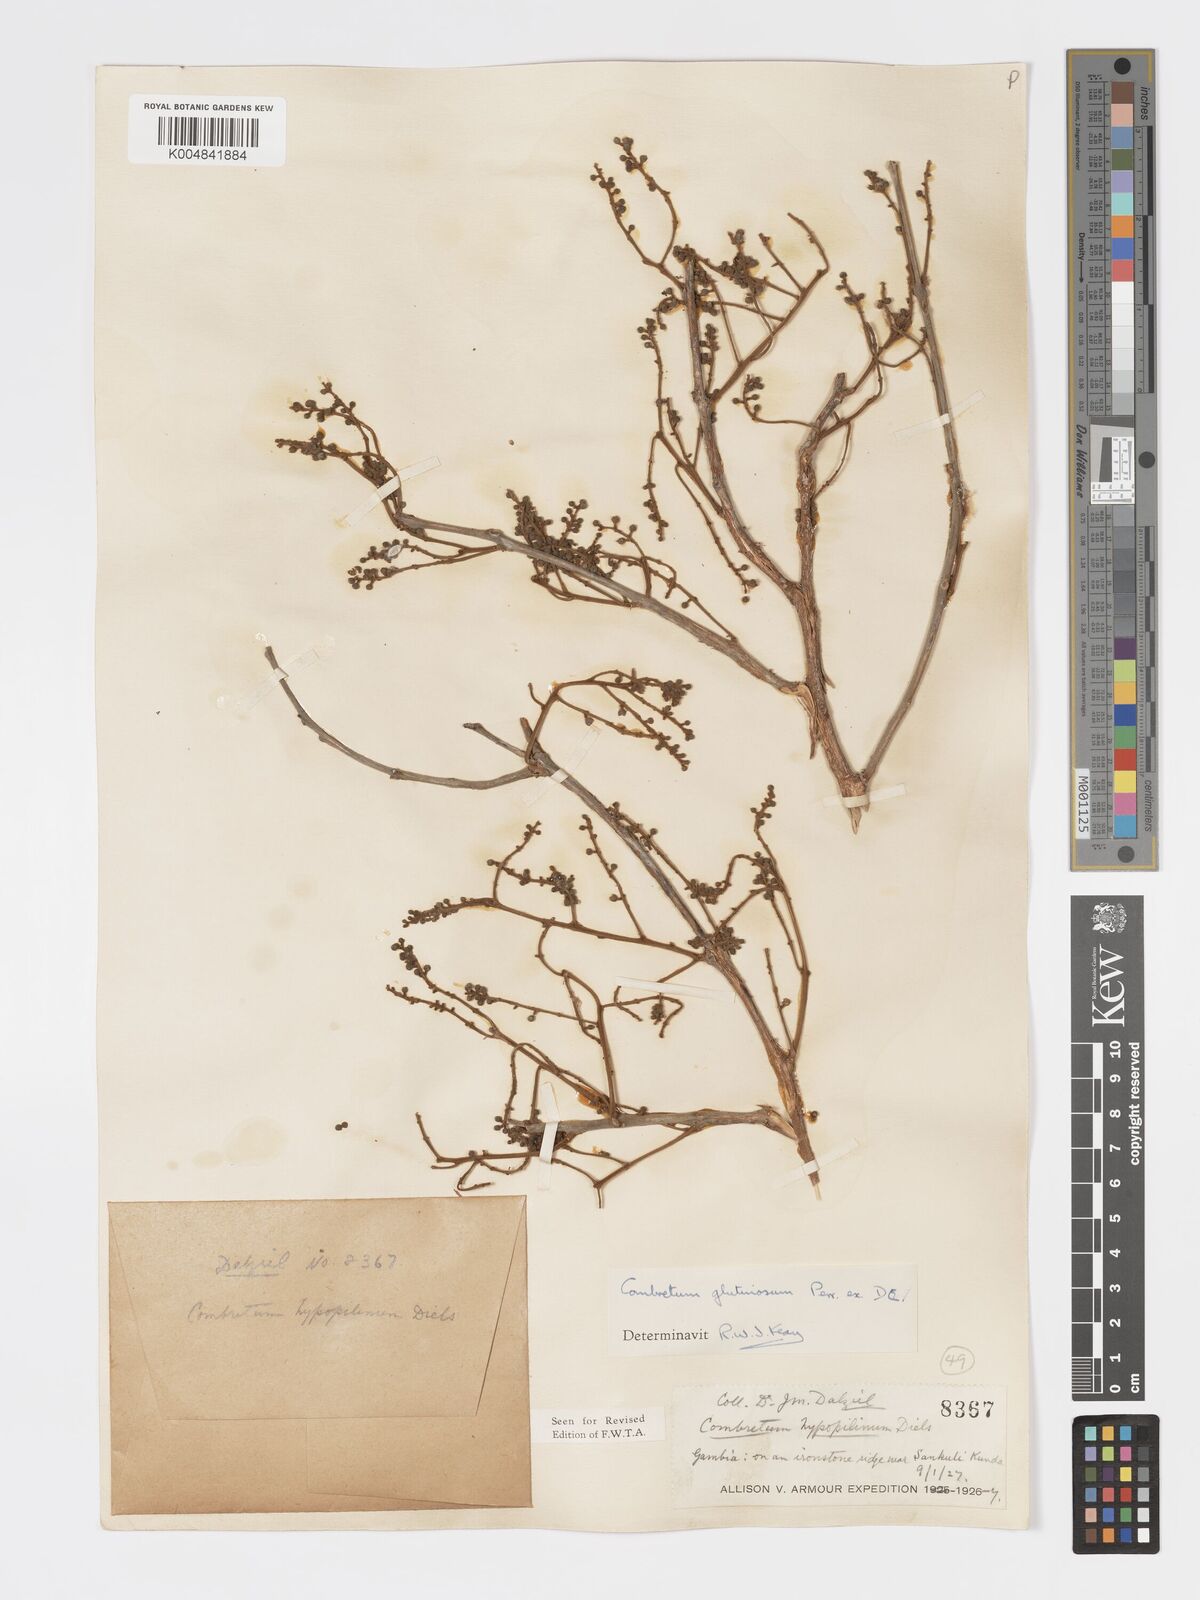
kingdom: Plantae
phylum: Tracheophyta
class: Magnoliopsida
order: Myrtales
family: Combretaceae
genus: Combretum
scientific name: Combretum
